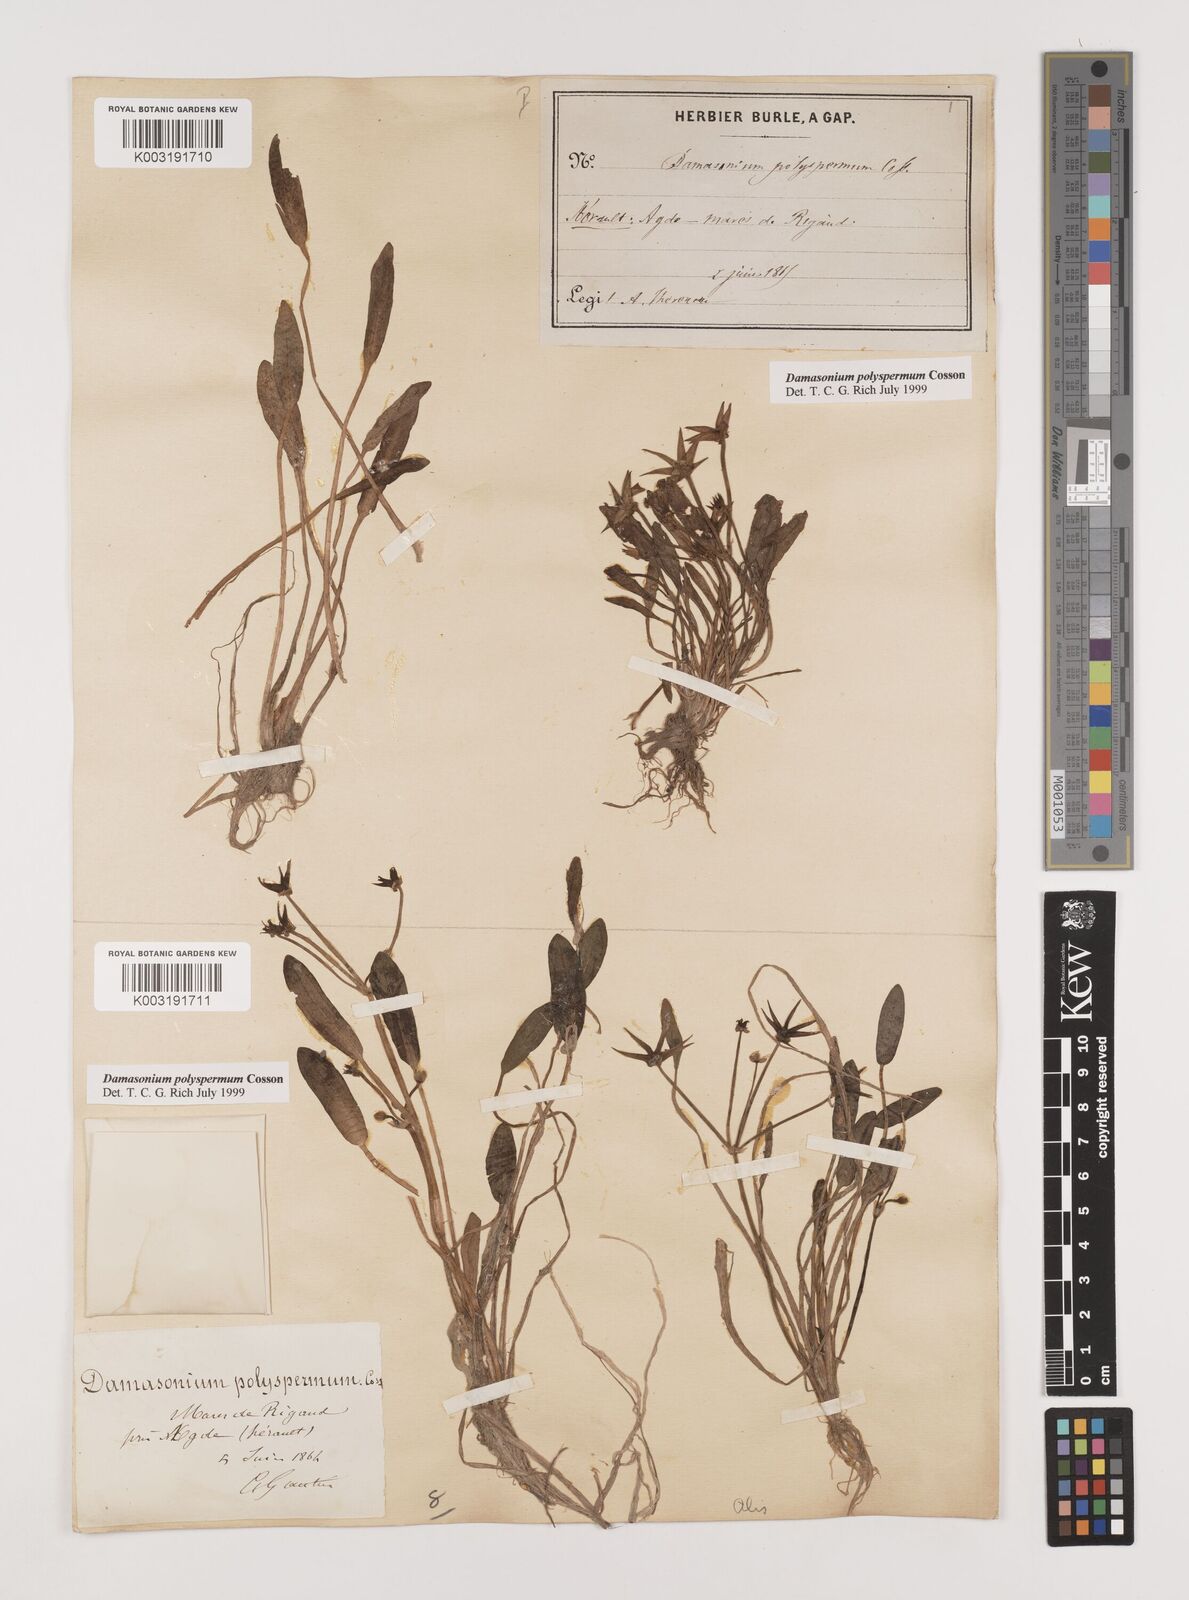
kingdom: Plantae
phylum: Tracheophyta
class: Liliopsida
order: Alismatales
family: Alismataceae
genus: Damasonium
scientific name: Damasonium polyspermum
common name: Starfruit
